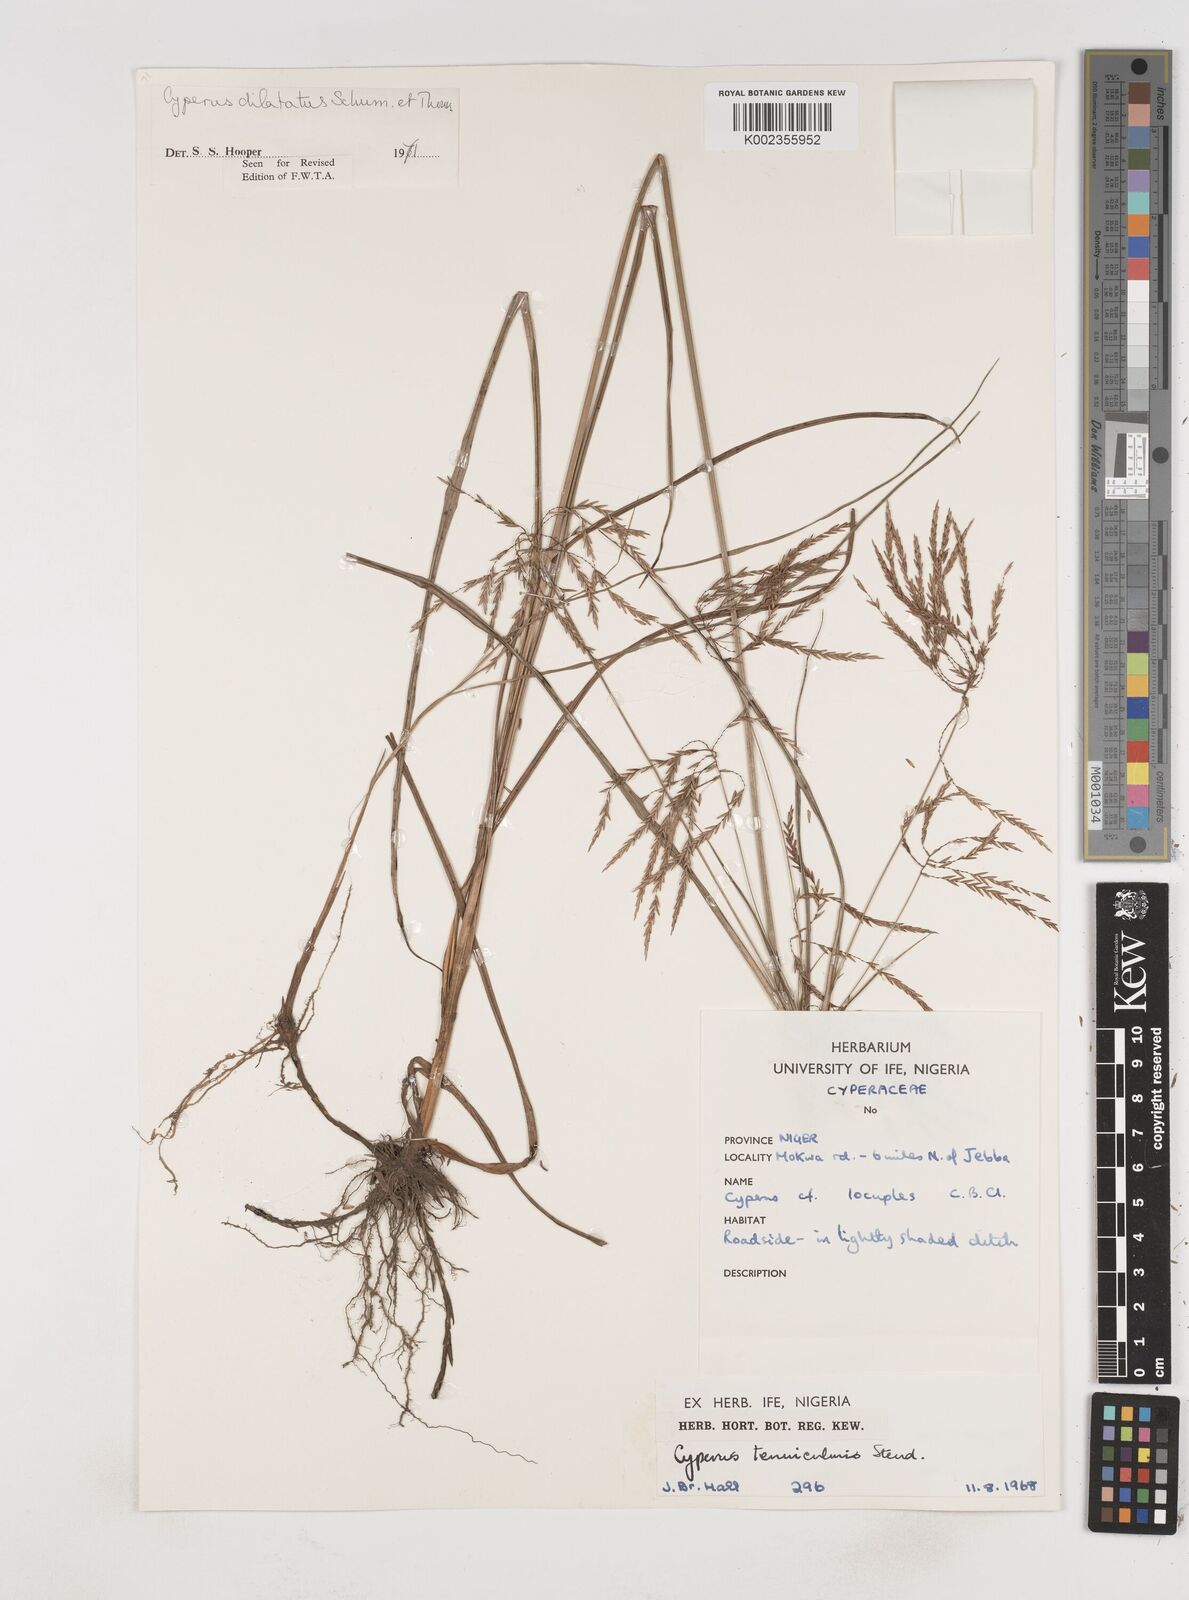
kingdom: Plantae
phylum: Tracheophyta
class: Liliopsida
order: Poales
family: Cyperaceae
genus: Cyperus
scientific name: Cyperus dilatatus
